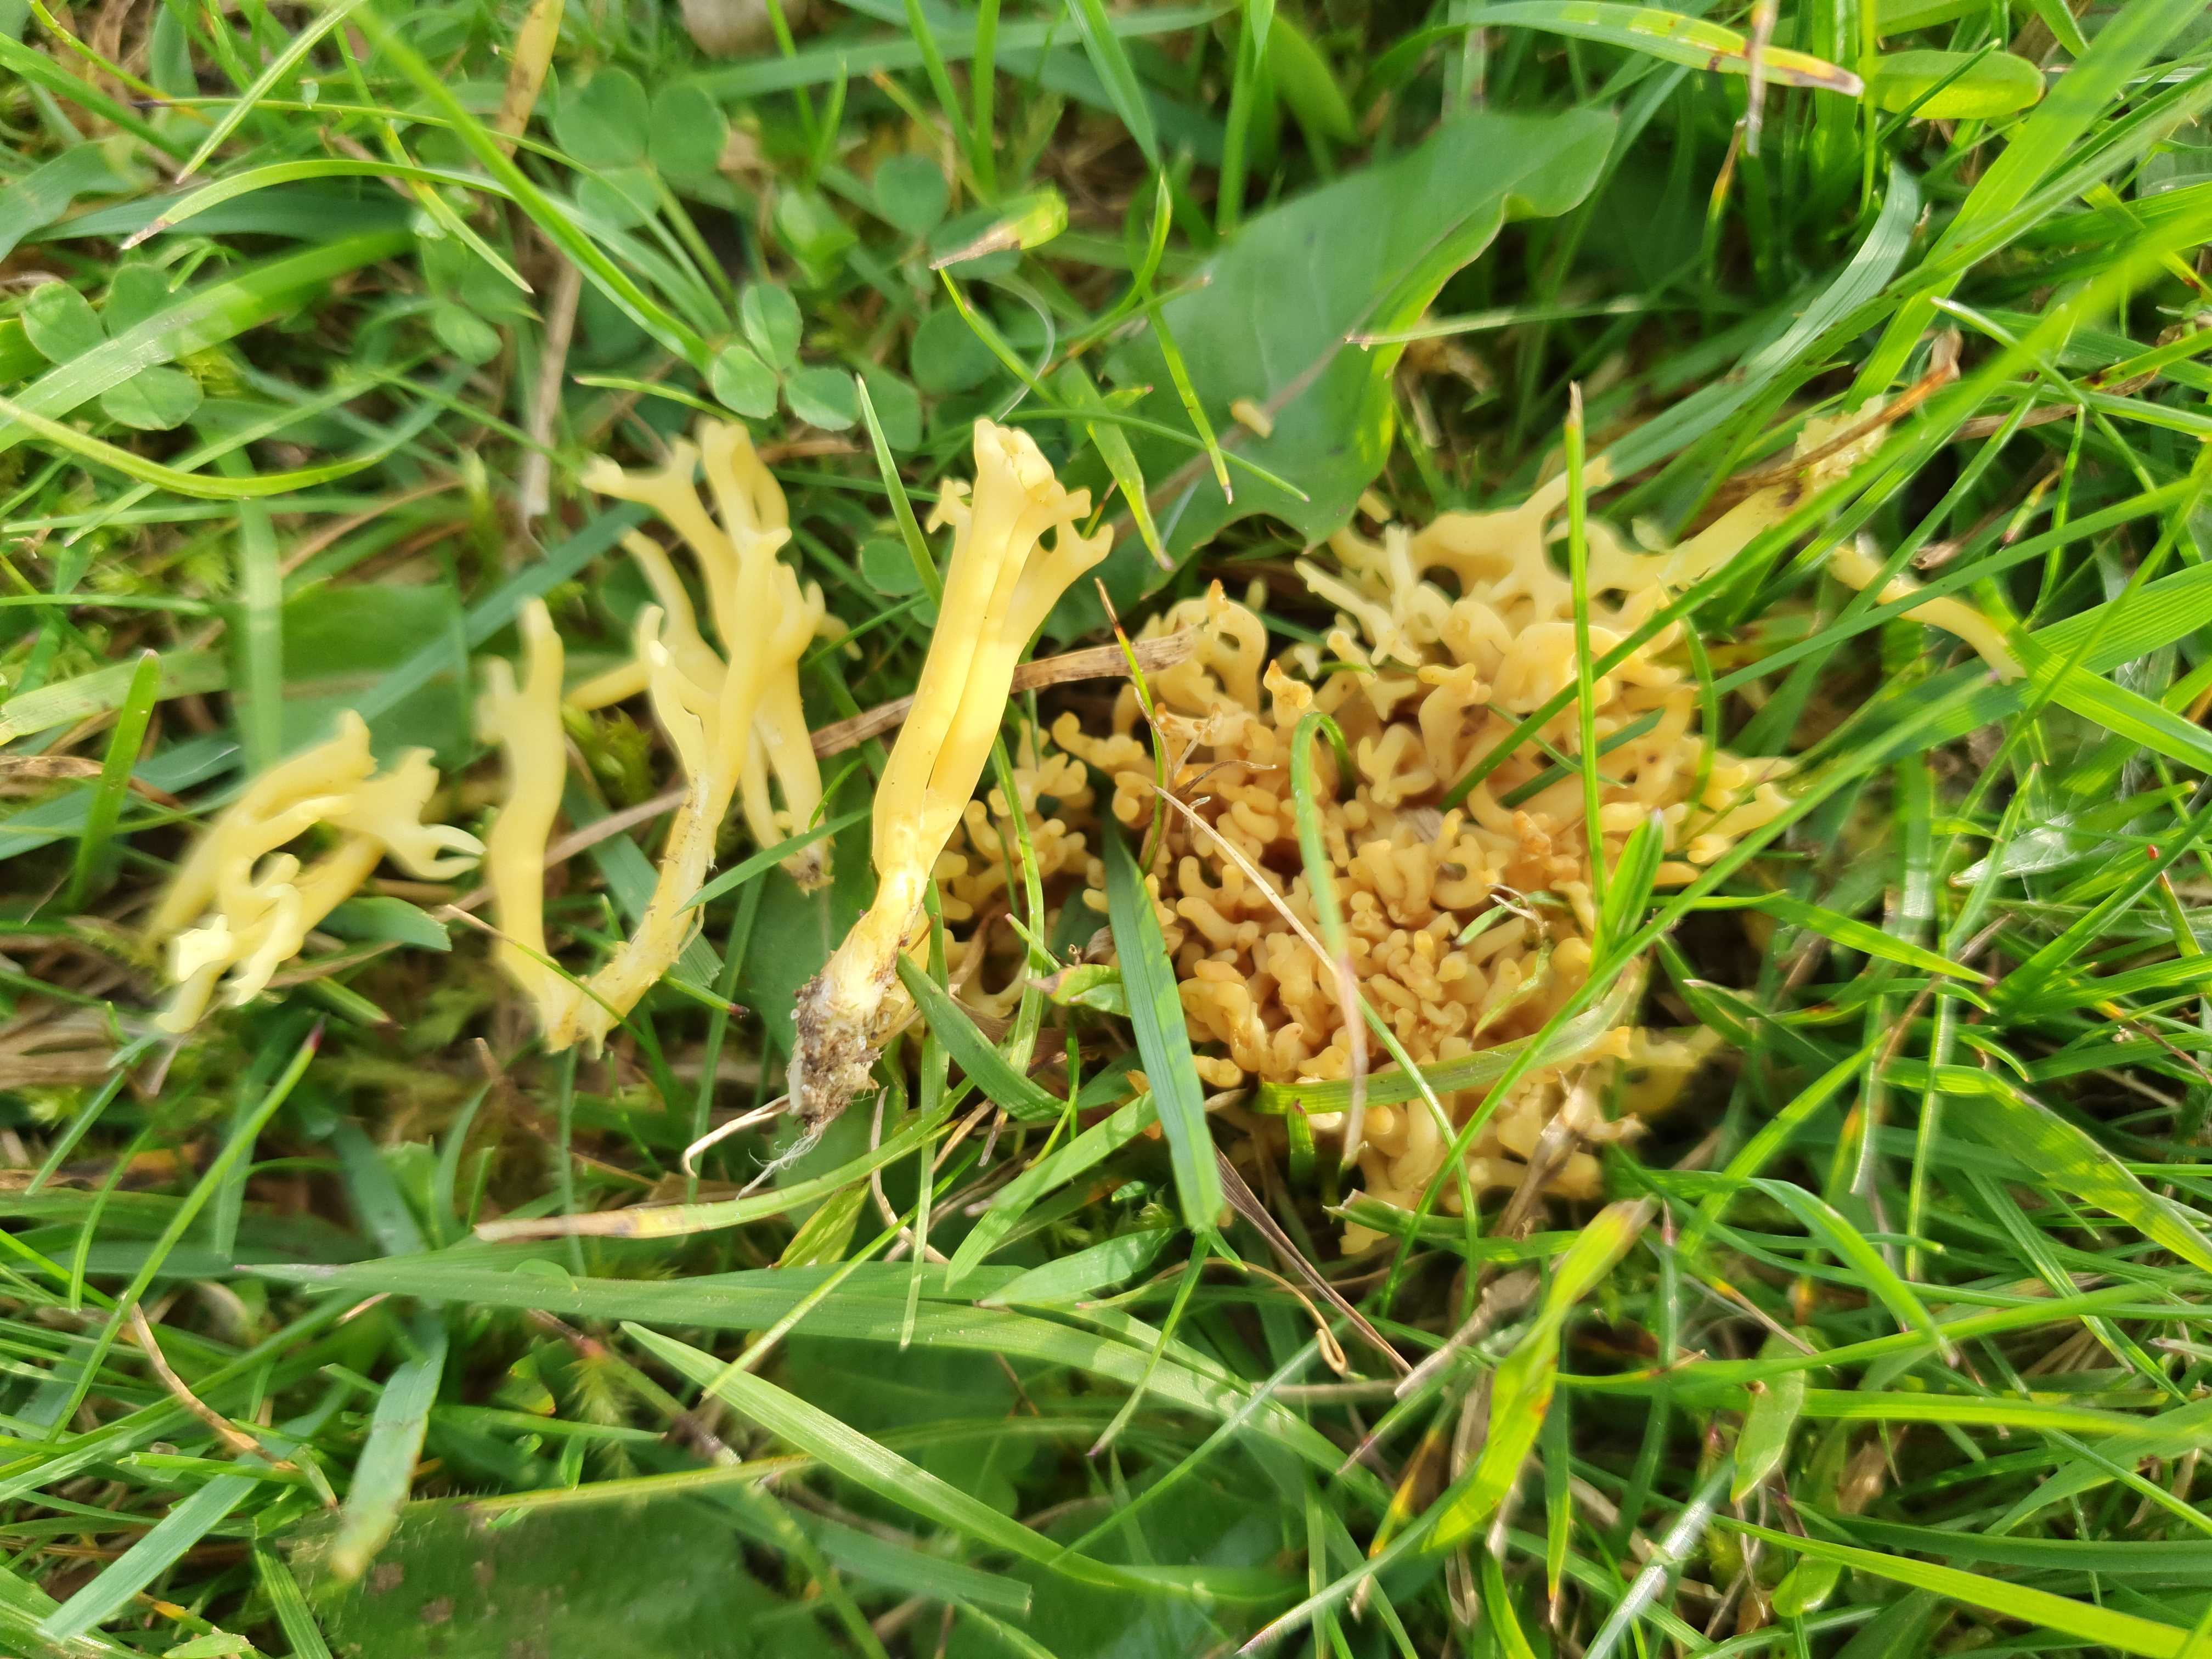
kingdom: Fungi
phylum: Basidiomycota
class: Agaricomycetes
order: Agaricales
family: Clavariaceae
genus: Clavulinopsis
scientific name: Clavulinopsis corniculata
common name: eng-køllesvamp
